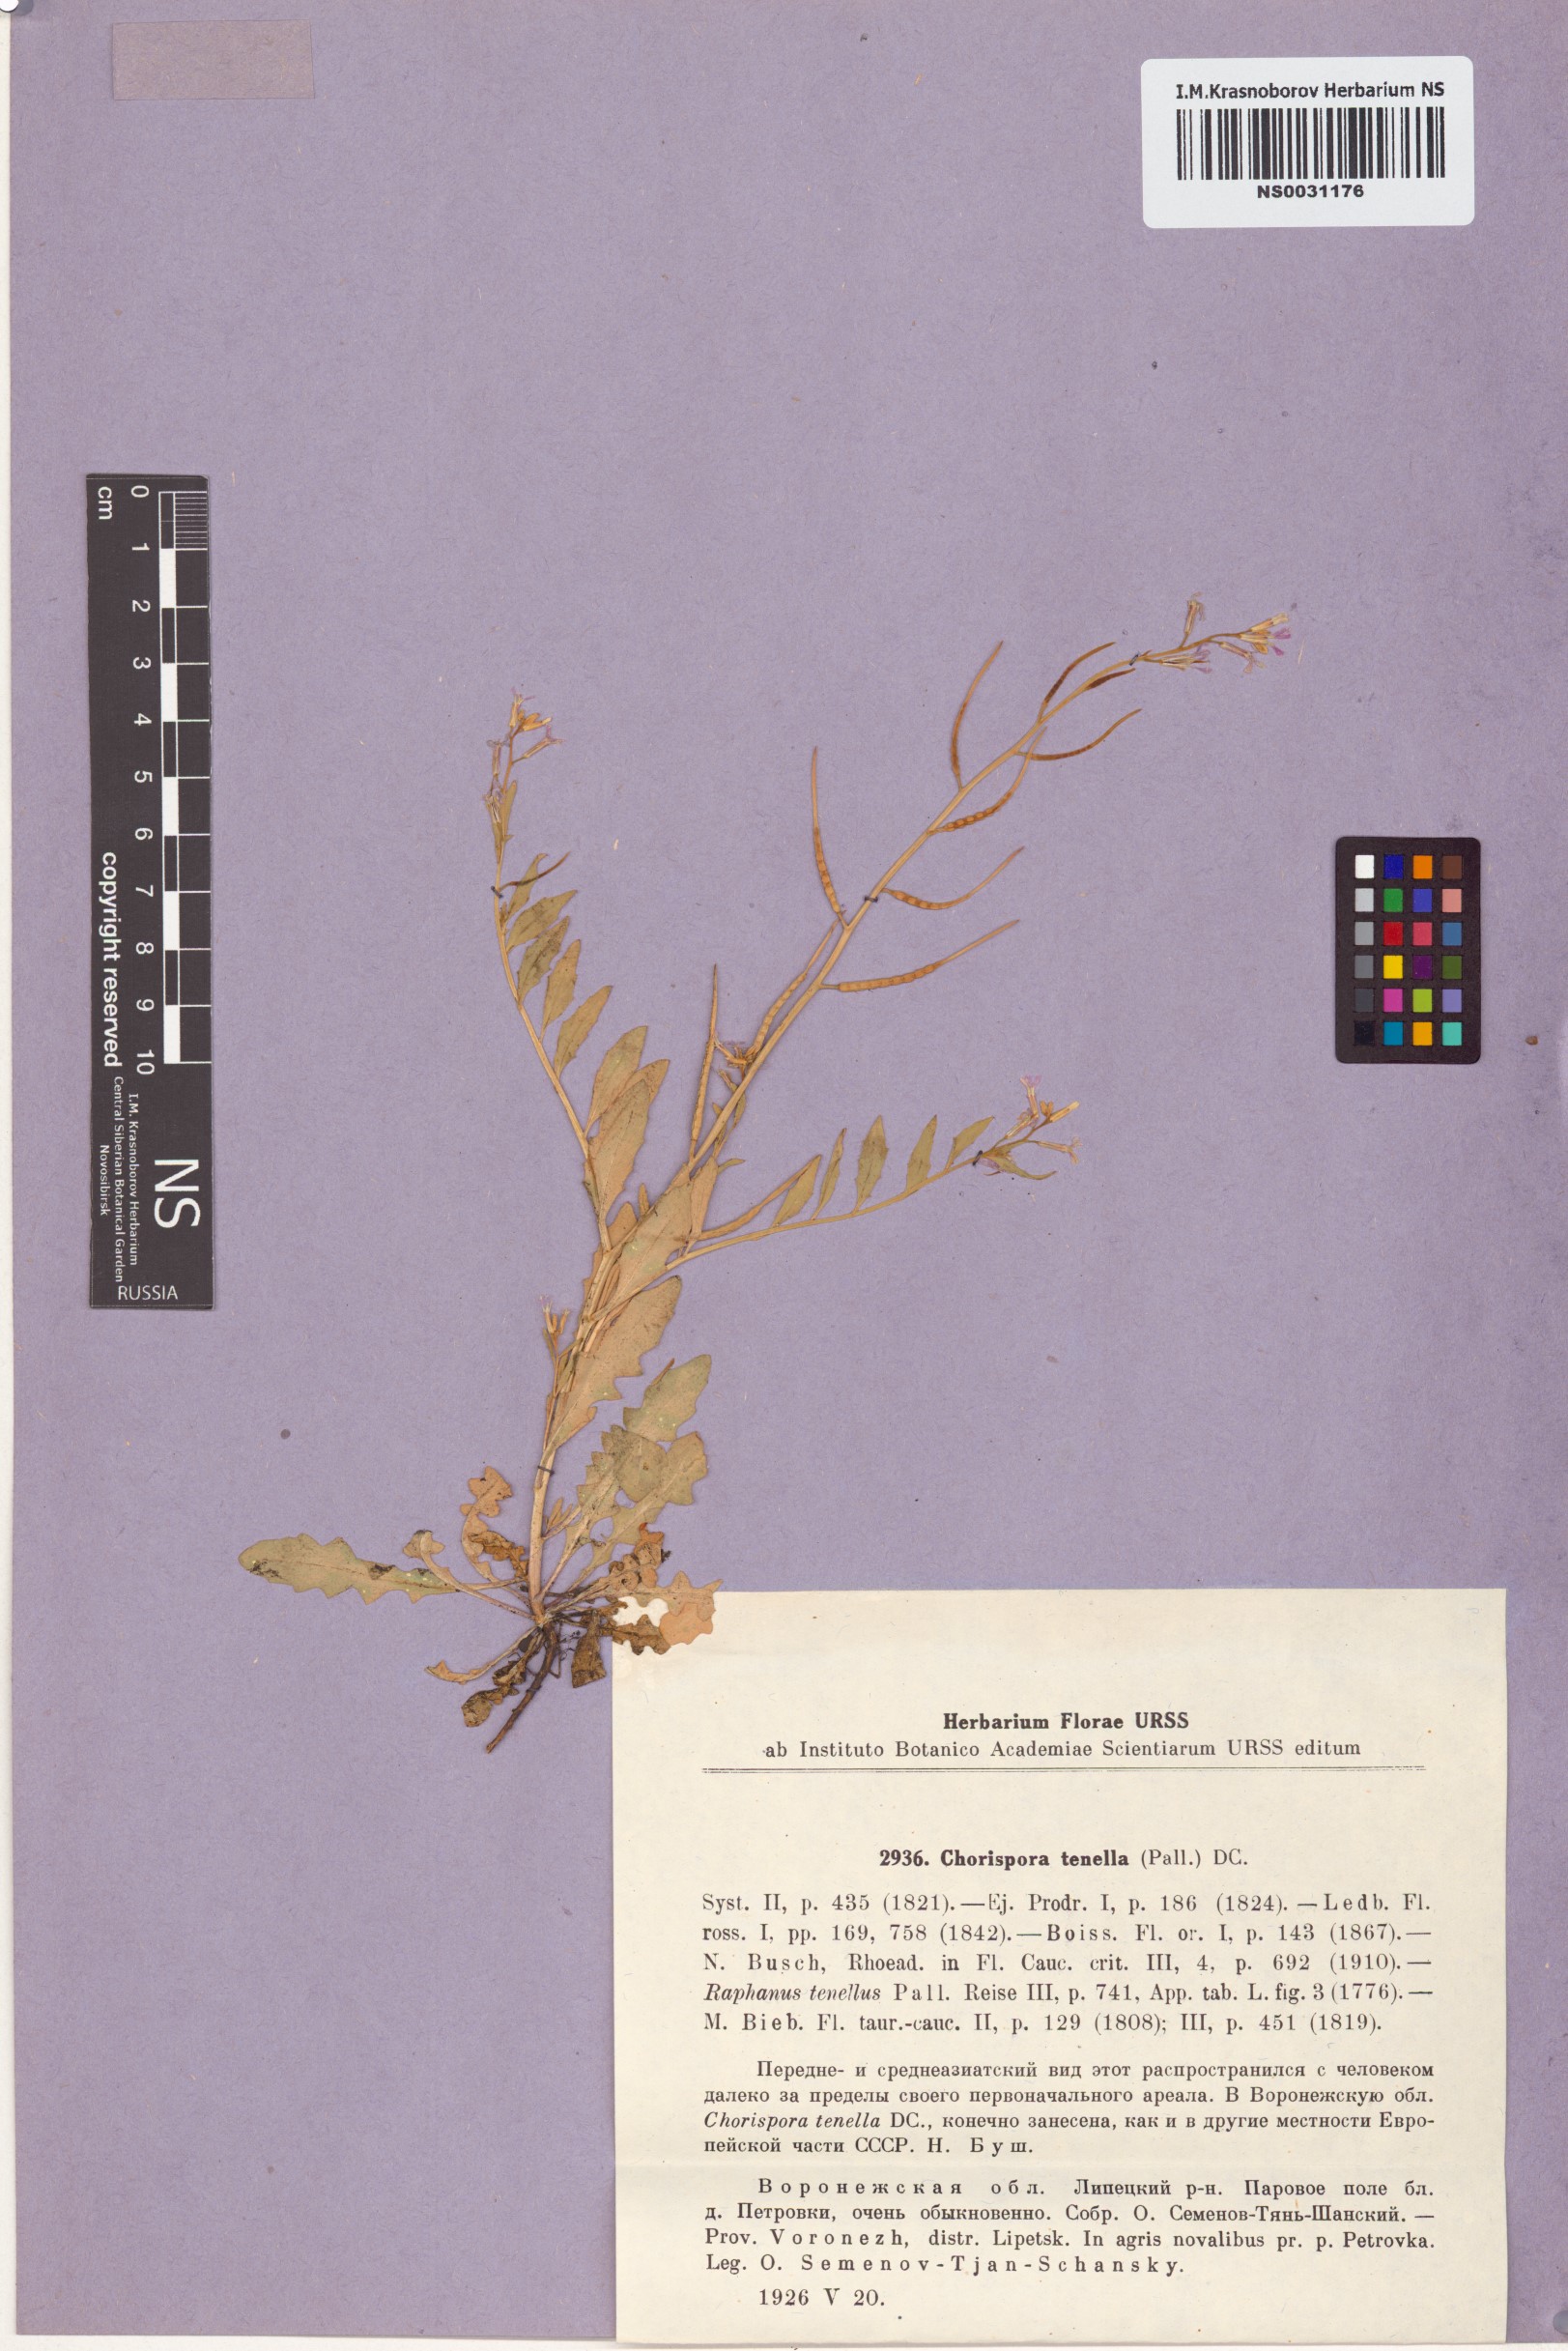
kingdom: Plantae
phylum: Tracheophyta
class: Magnoliopsida
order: Brassicales
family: Brassicaceae
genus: Chorispora
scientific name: Chorispora tenella
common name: Crossflower
